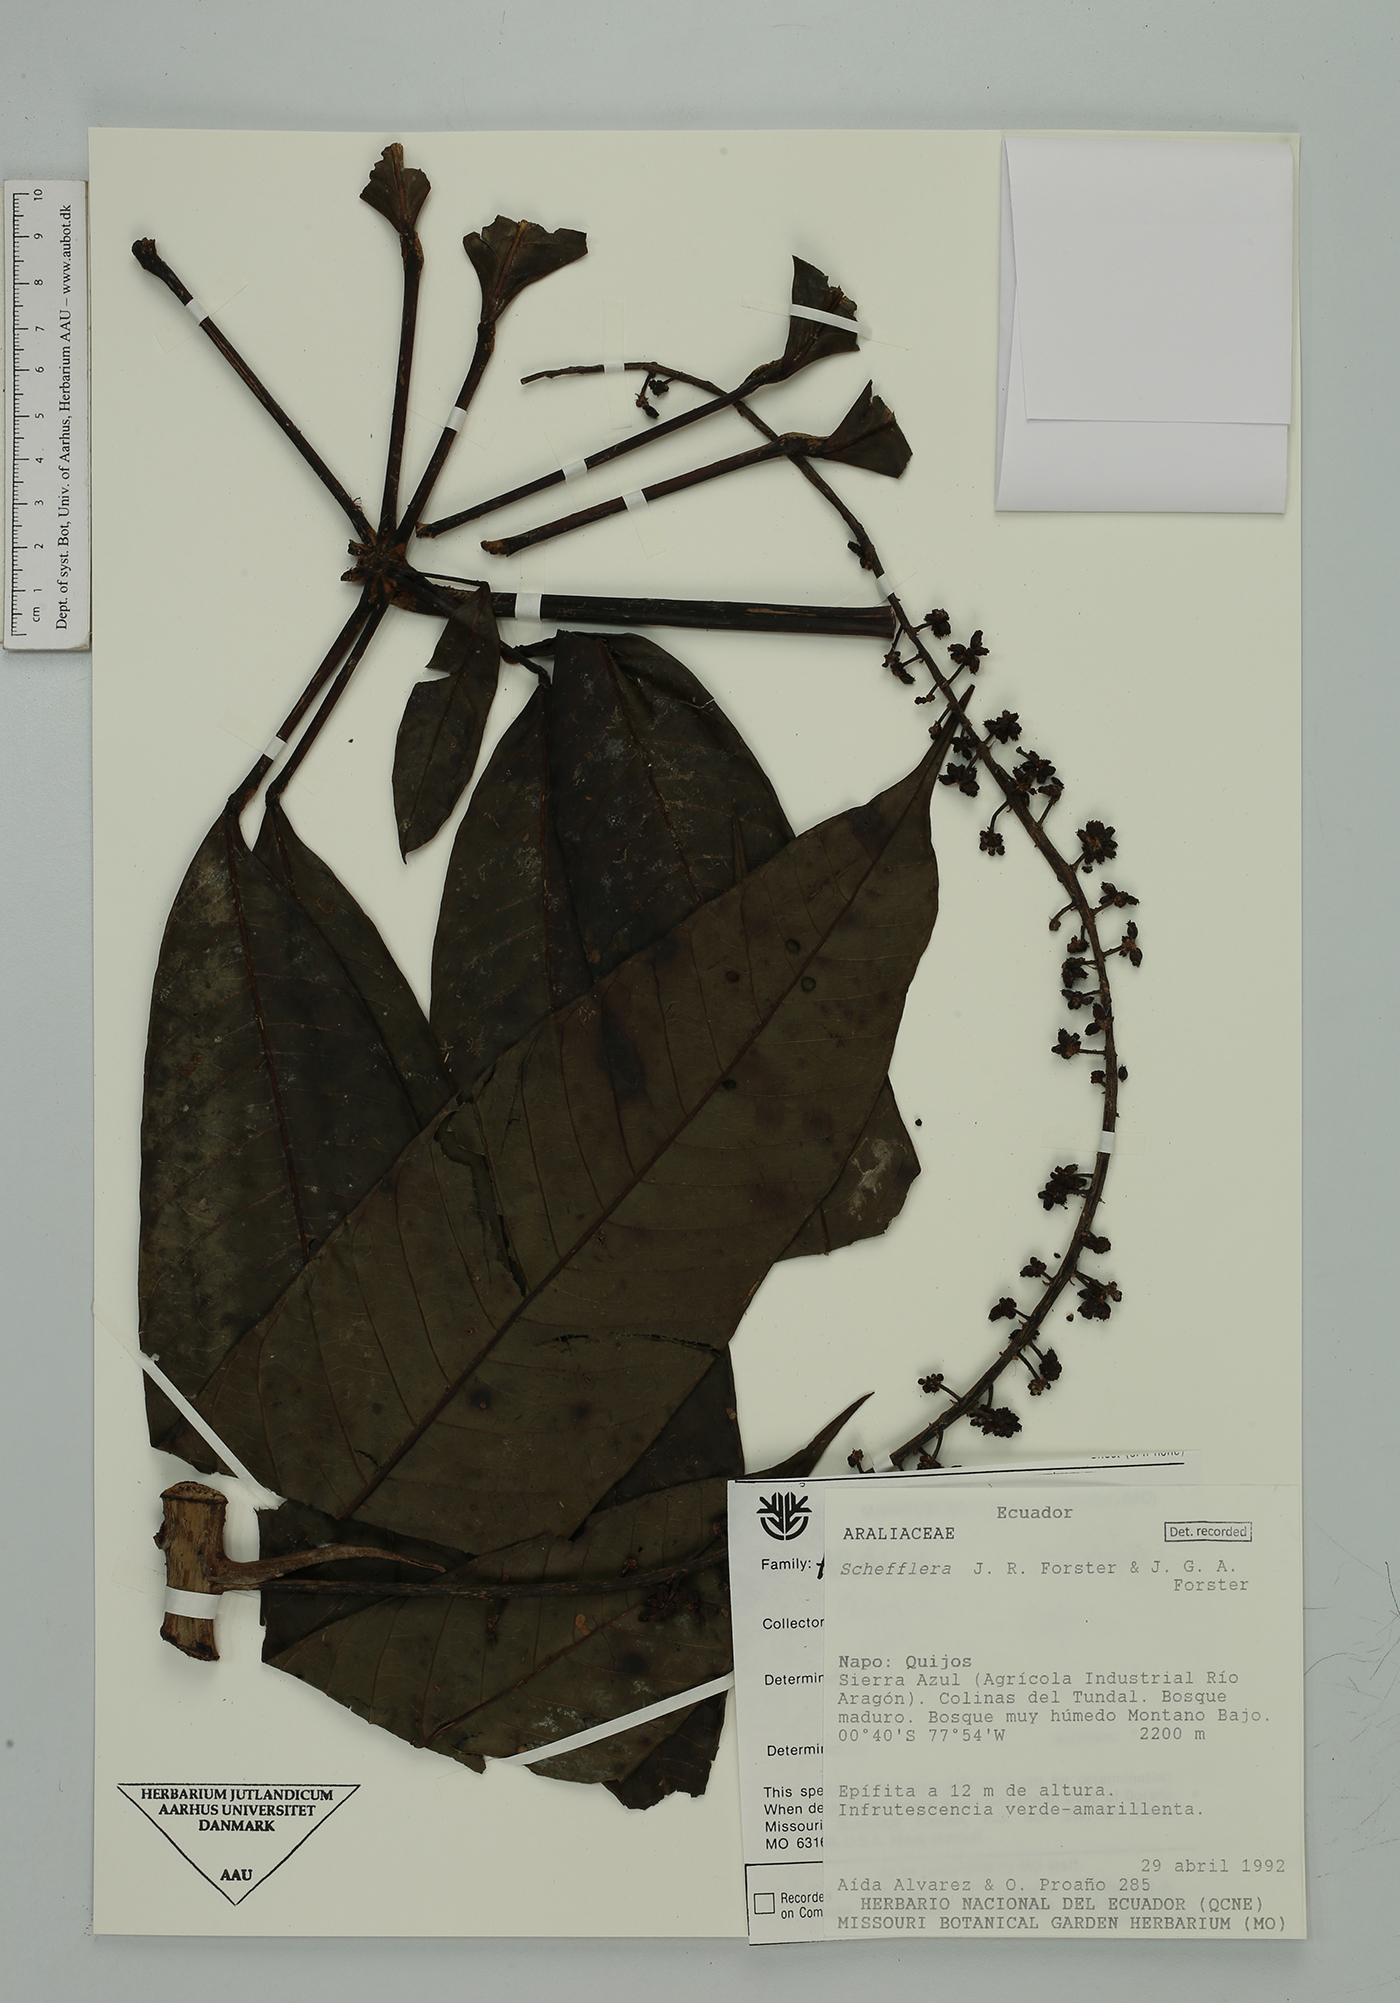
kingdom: Plantae
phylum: Tracheophyta
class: Magnoliopsida
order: Apiales
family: Araliaceae
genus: Sciodaphyllum
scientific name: Sciodaphyllum
